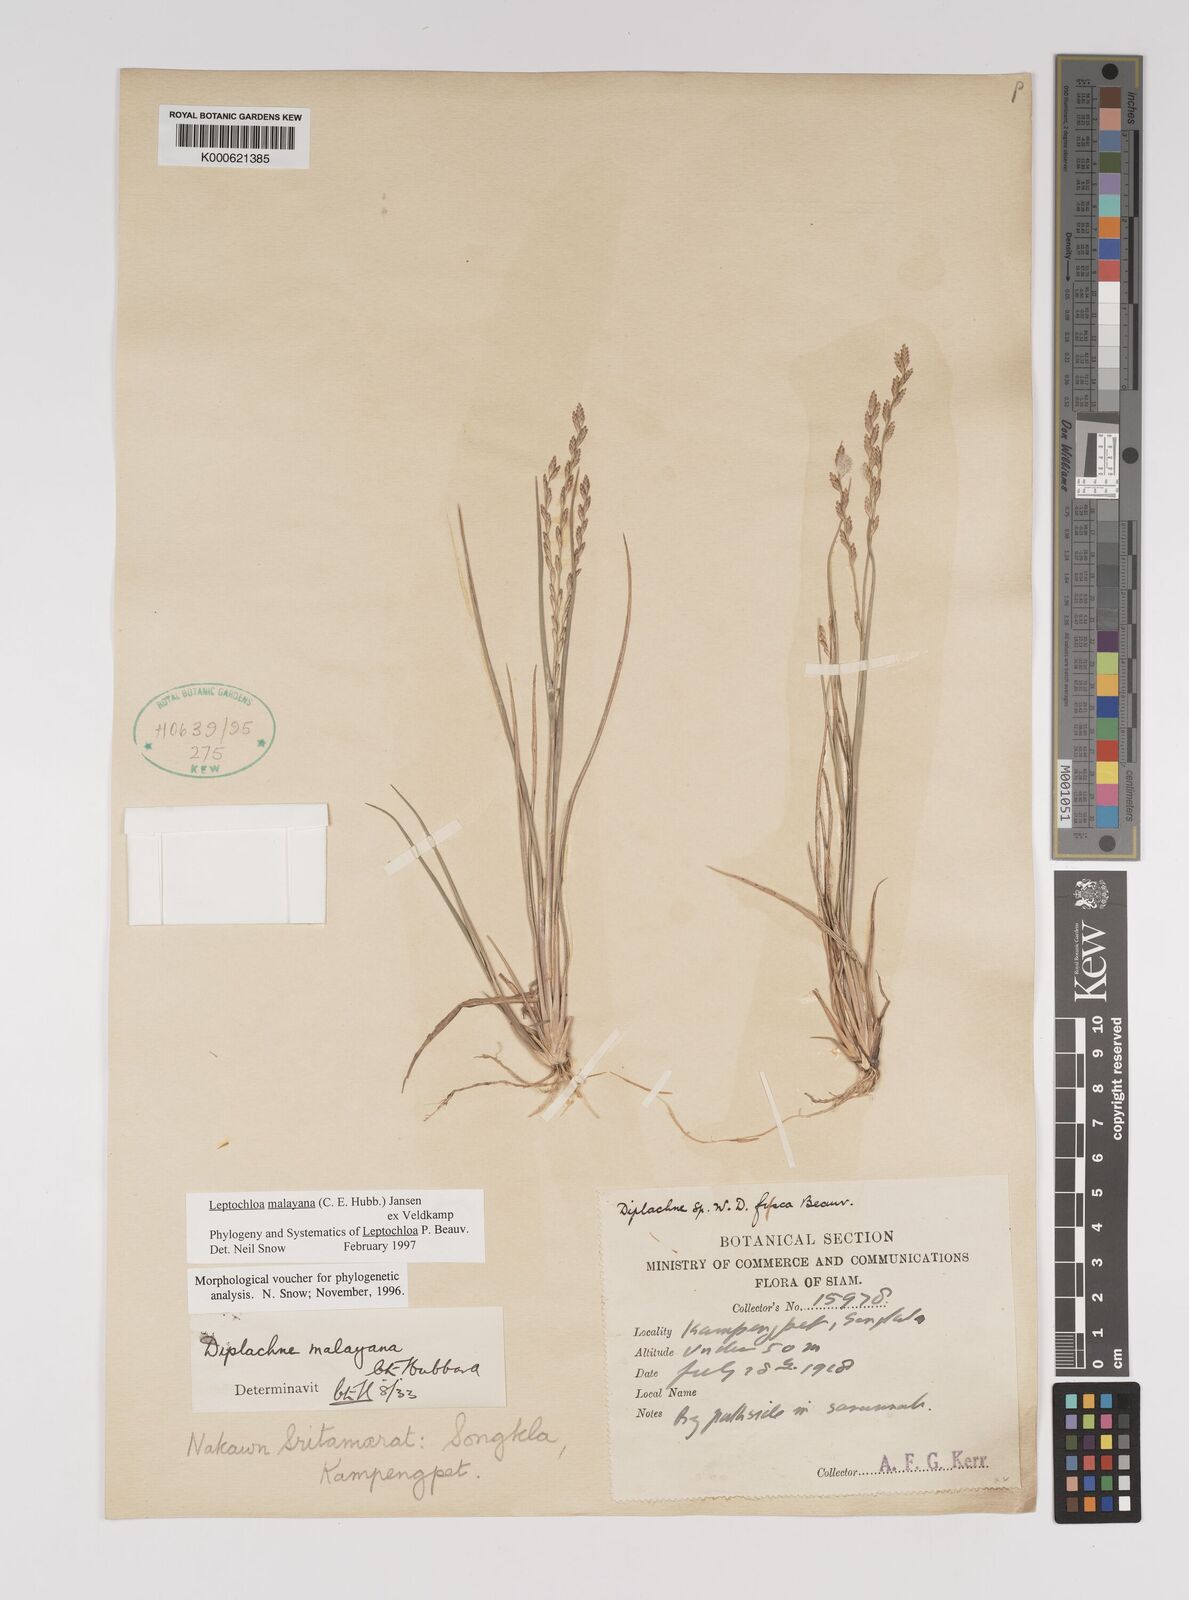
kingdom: Plantae
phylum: Tracheophyta
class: Liliopsida
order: Poales
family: Poaceae
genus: Leptochloa
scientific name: Leptochloa malayana
